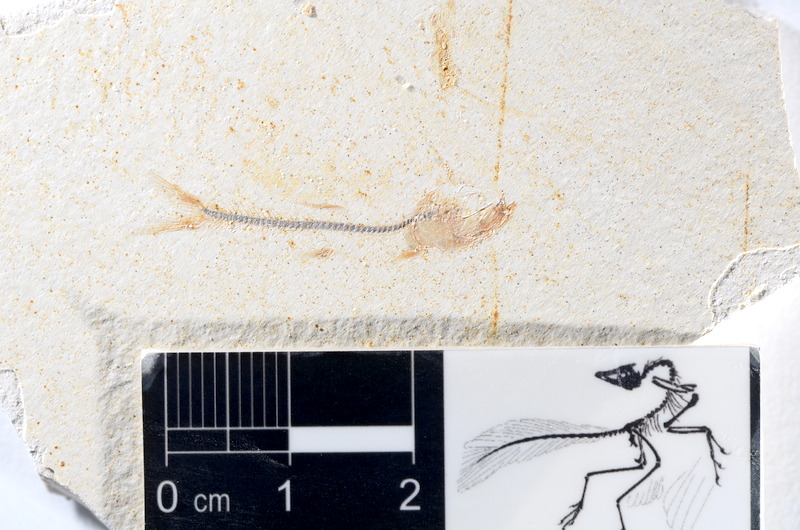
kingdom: Animalia
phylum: Chordata
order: Salmoniformes
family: Orthogonikleithridae
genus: Orthogonikleithrus
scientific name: Orthogonikleithrus hoelli
